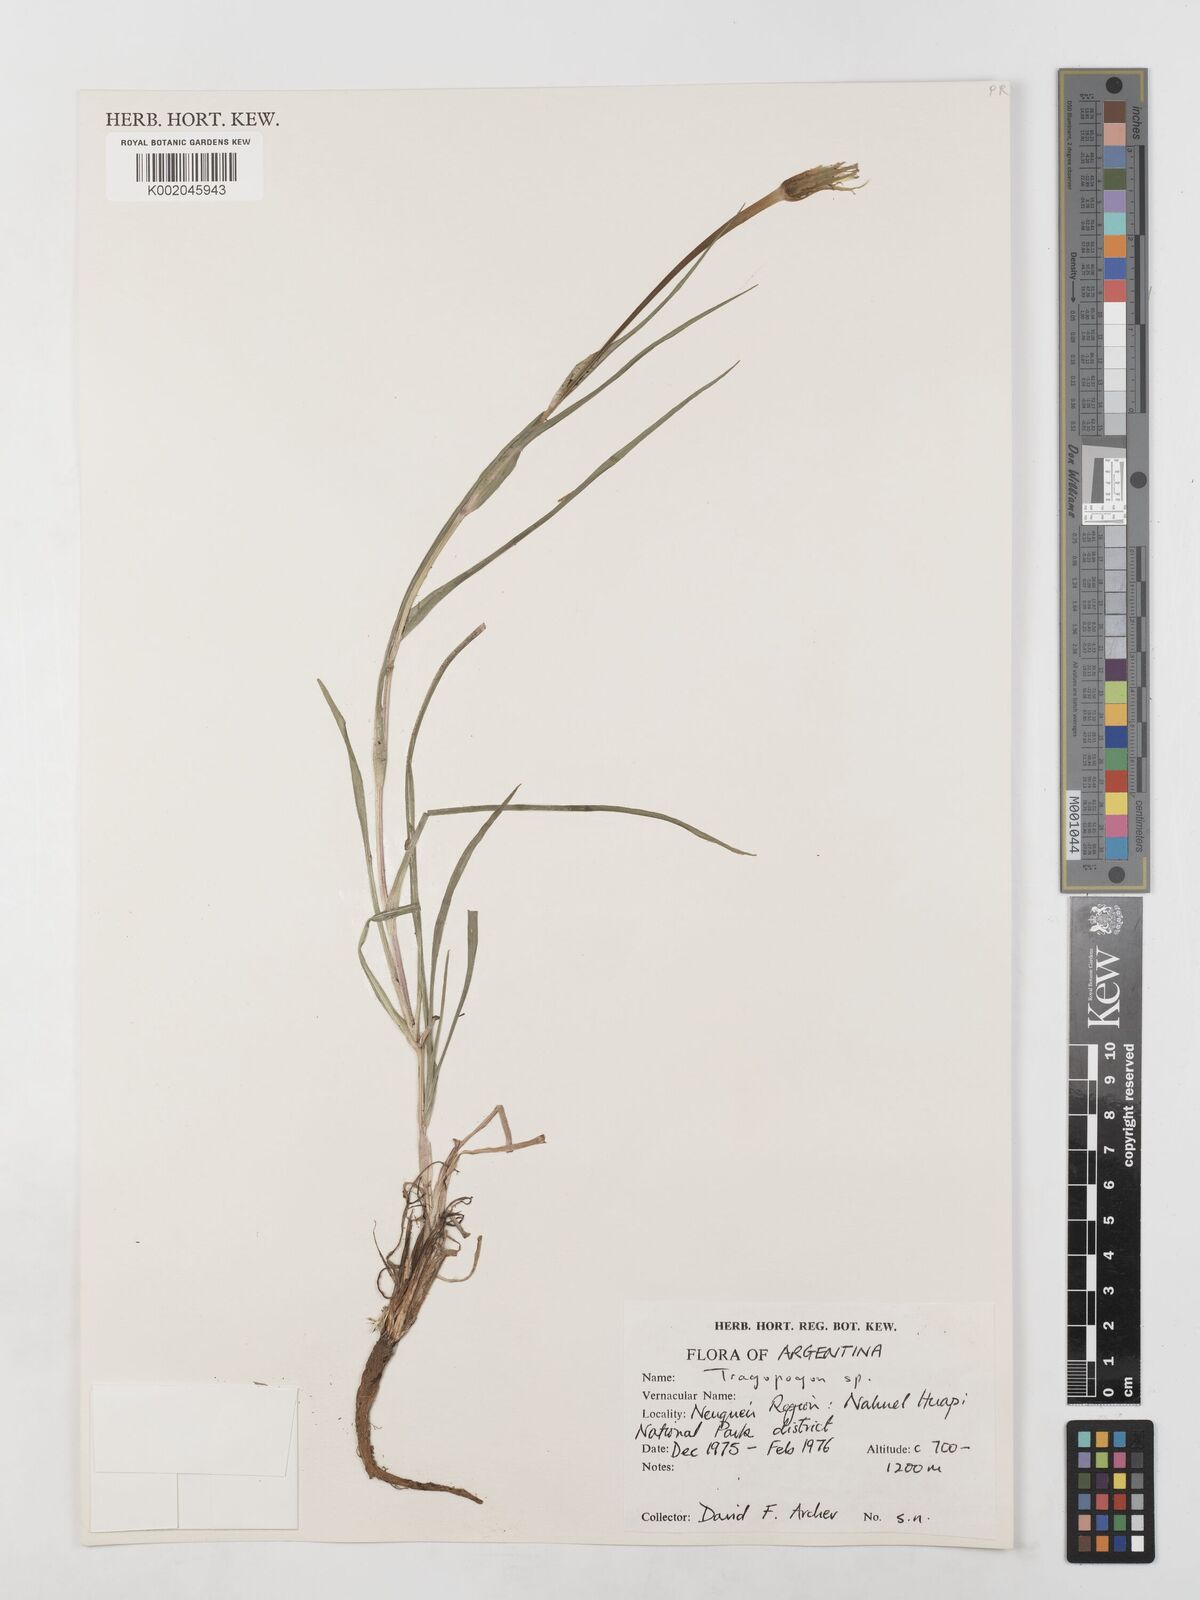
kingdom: Plantae
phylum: Tracheophyta
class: Magnoliopsida
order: Asterales
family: Asteraceae
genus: Tragopogon
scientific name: Tragopogon
